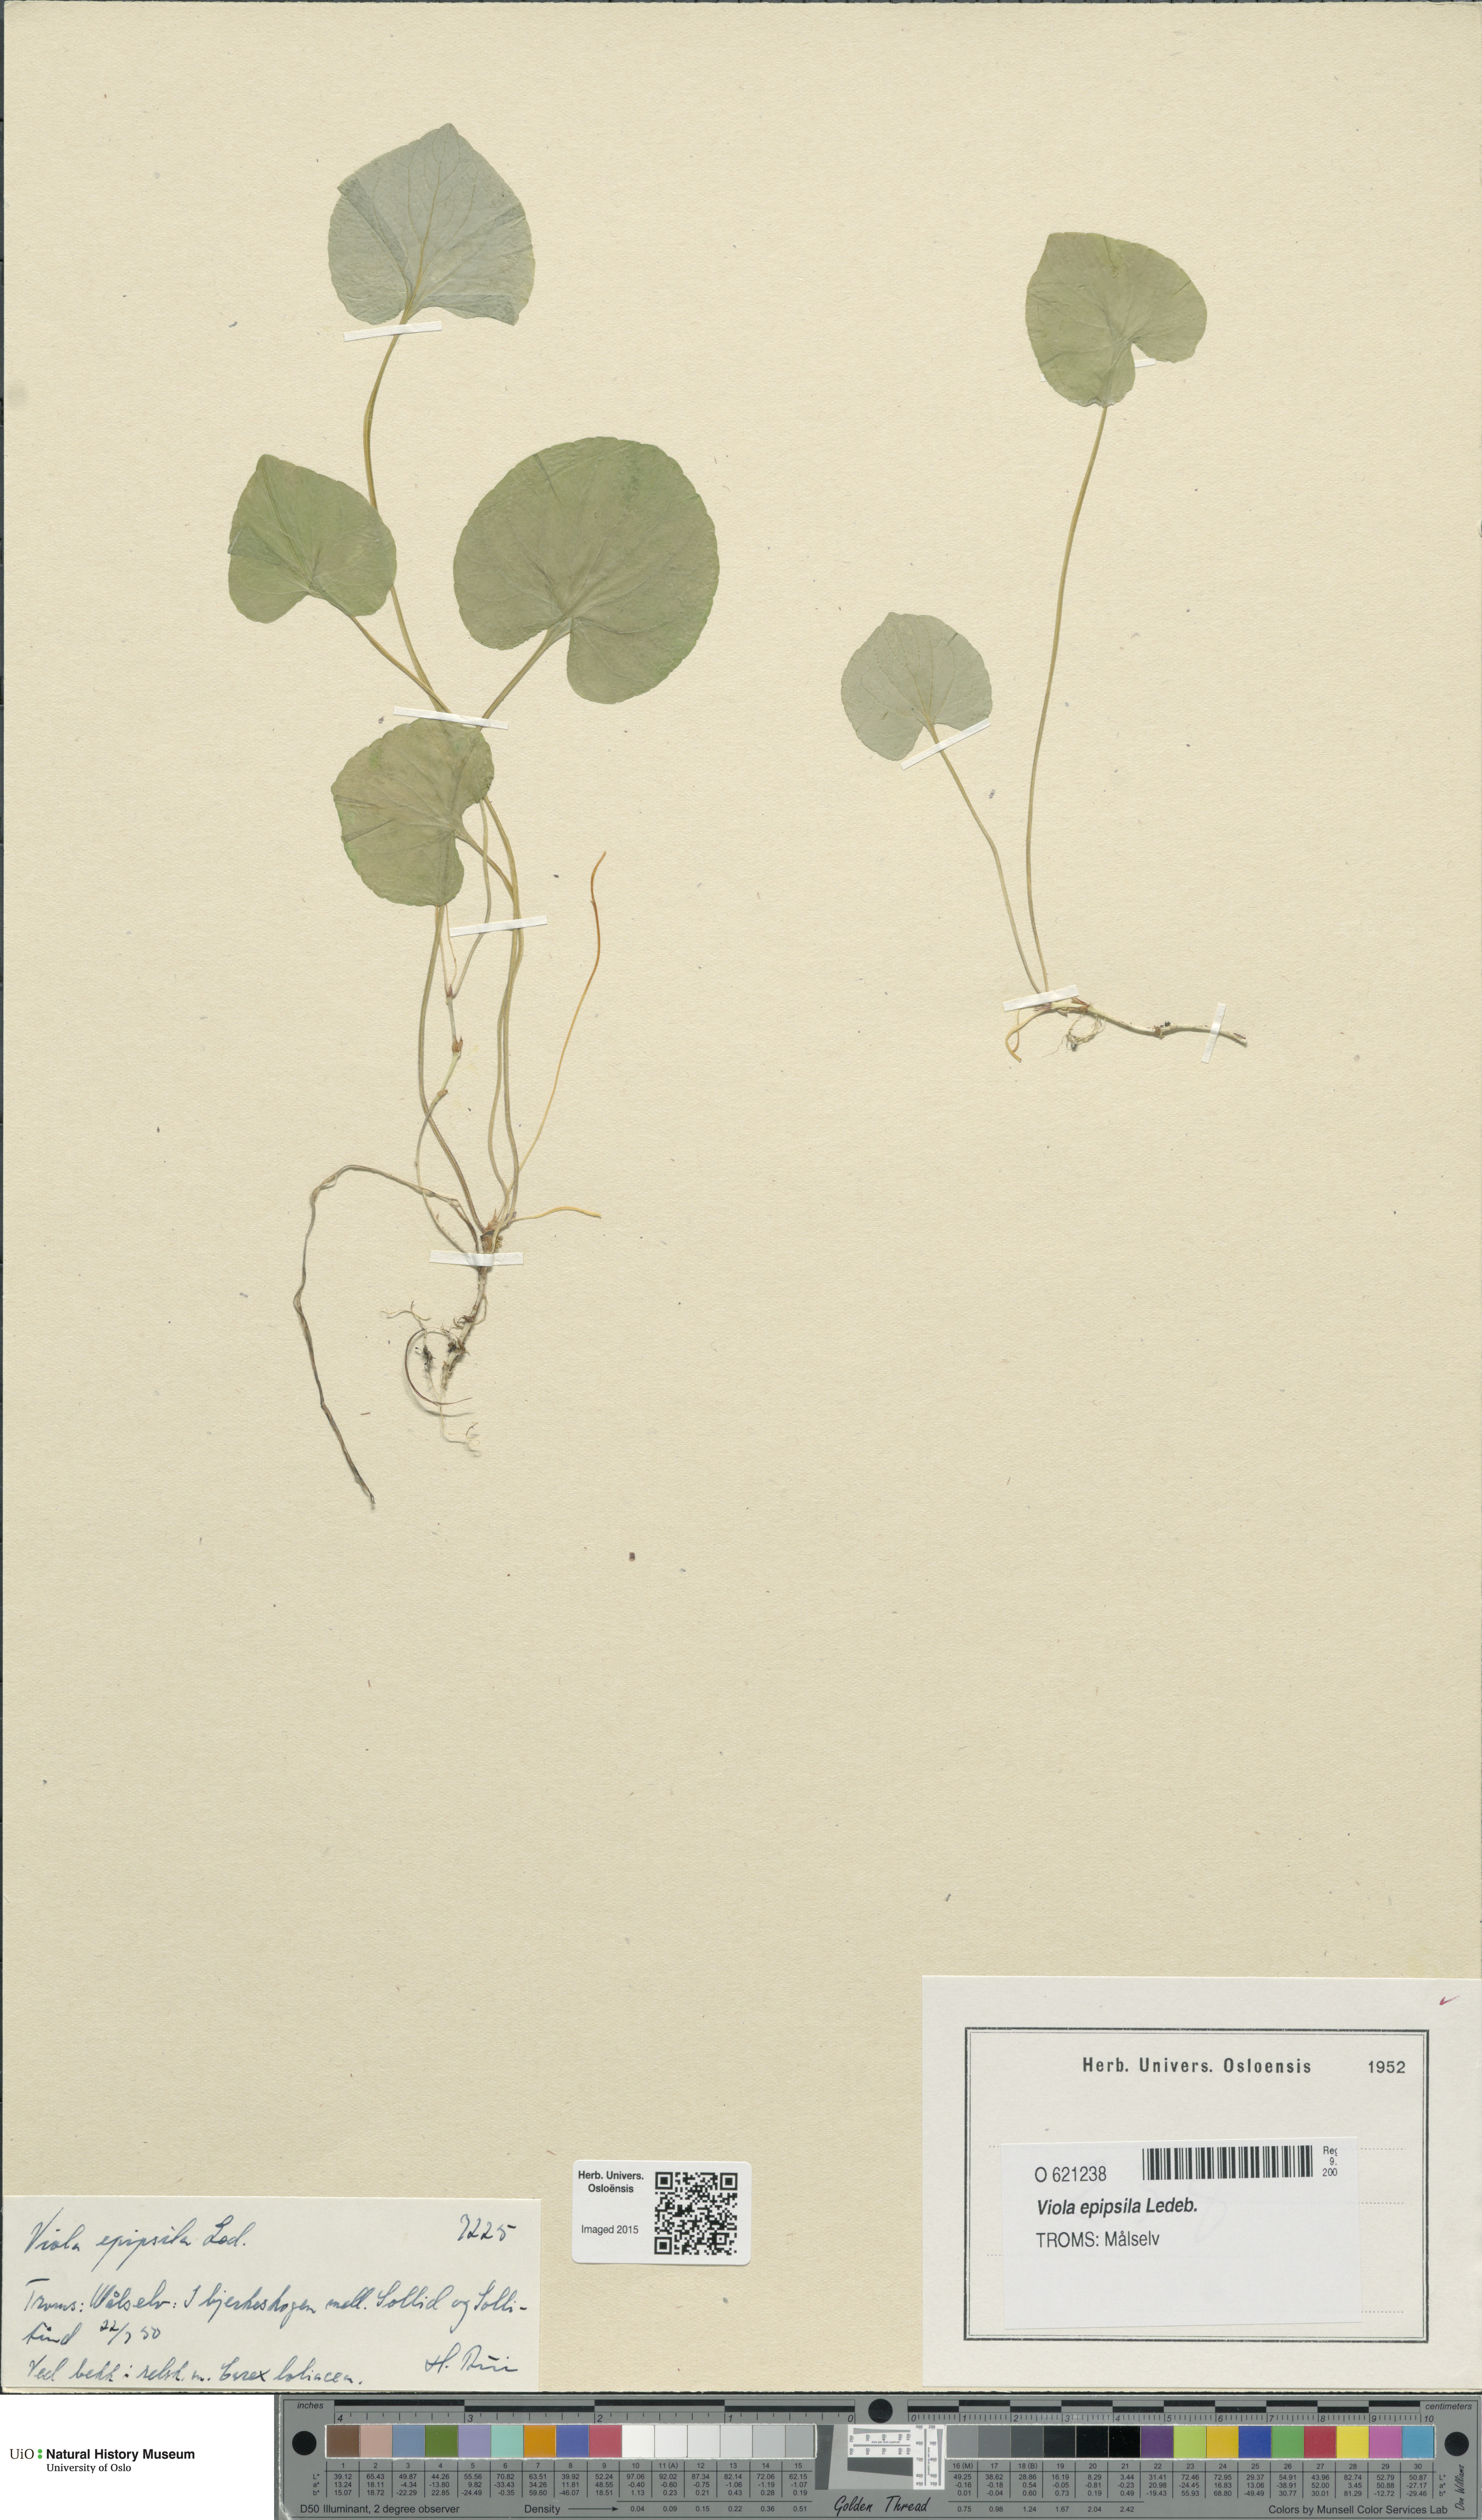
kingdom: Plantae
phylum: Tracheophyta
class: Magnoliopsida
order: Malpighiales
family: Violaceae
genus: Viola
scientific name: Viola epipsila
